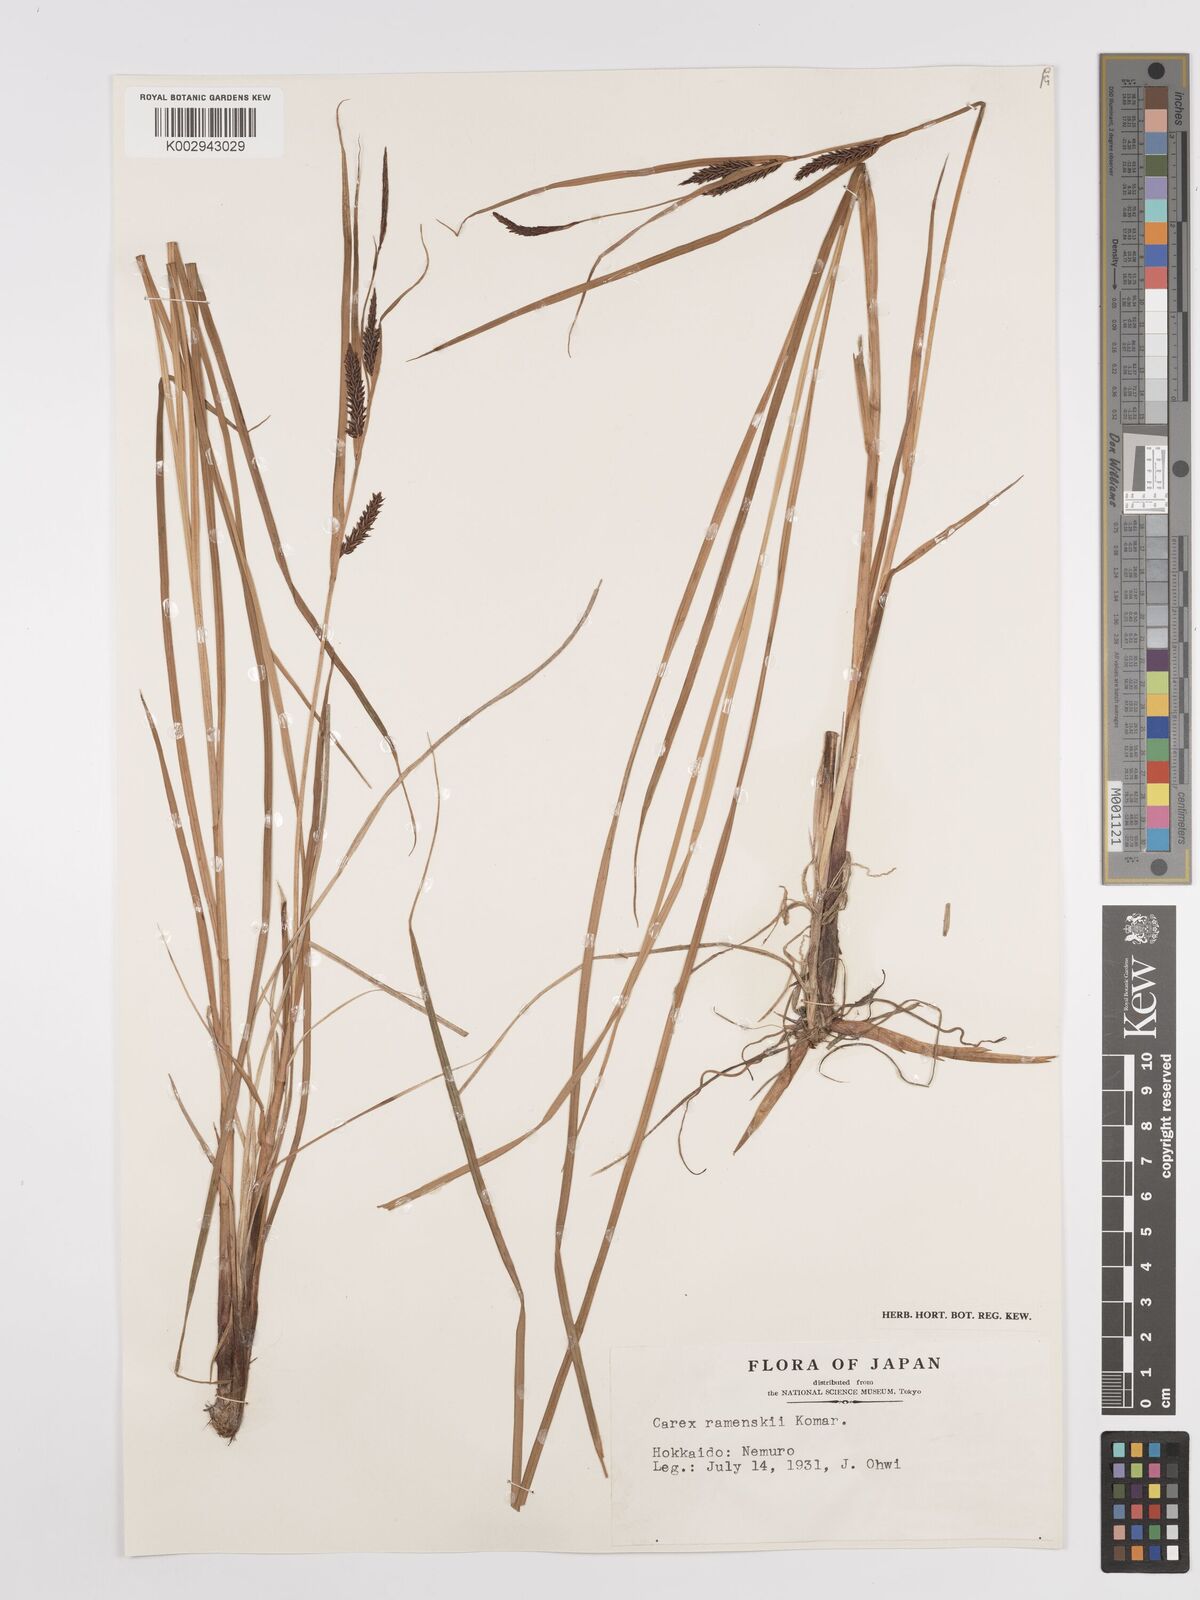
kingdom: Plantae
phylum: Tracheophyta
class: Liliopsida
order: Poales
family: Cyperaceae
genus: Carex
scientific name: Carex ramenskii
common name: Ramensk's sedge
